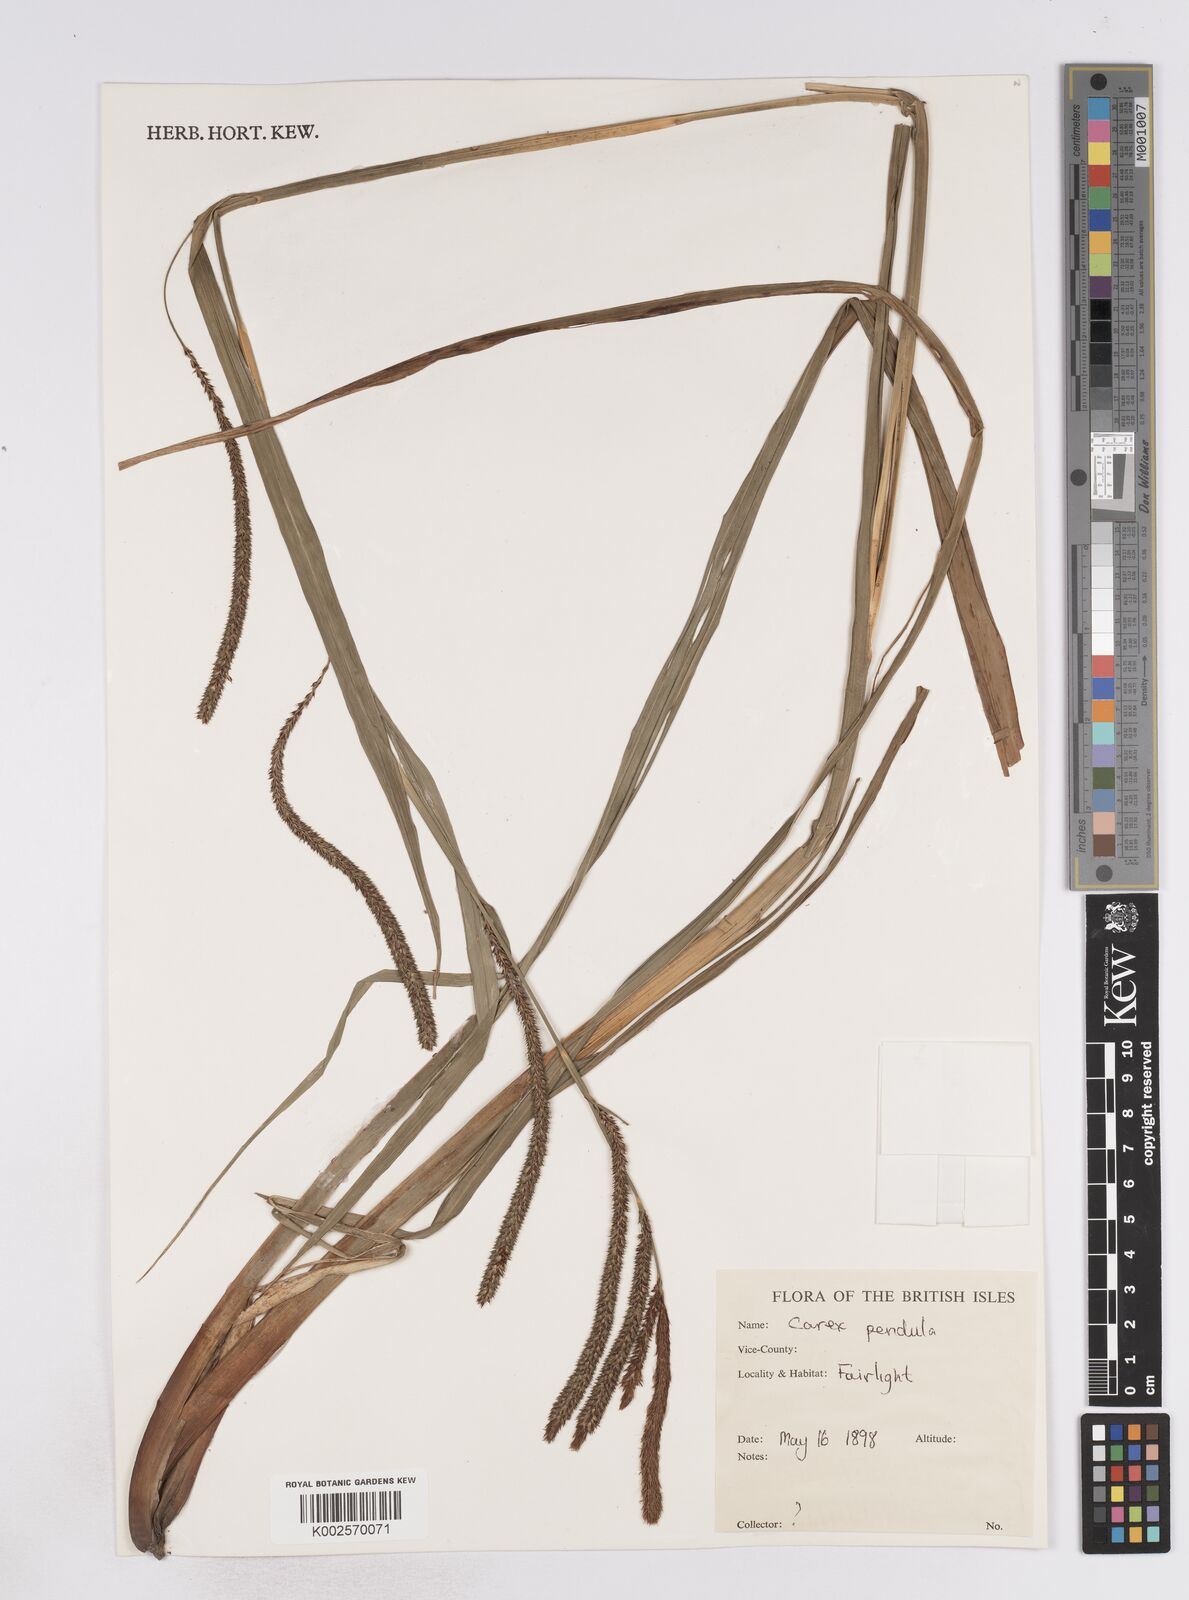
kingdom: Plantae
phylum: Tracheophyta
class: Liliopsida
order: Poales
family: Cyperaceae
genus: Carex
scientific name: Carex pendula
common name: Pendulous sedge
